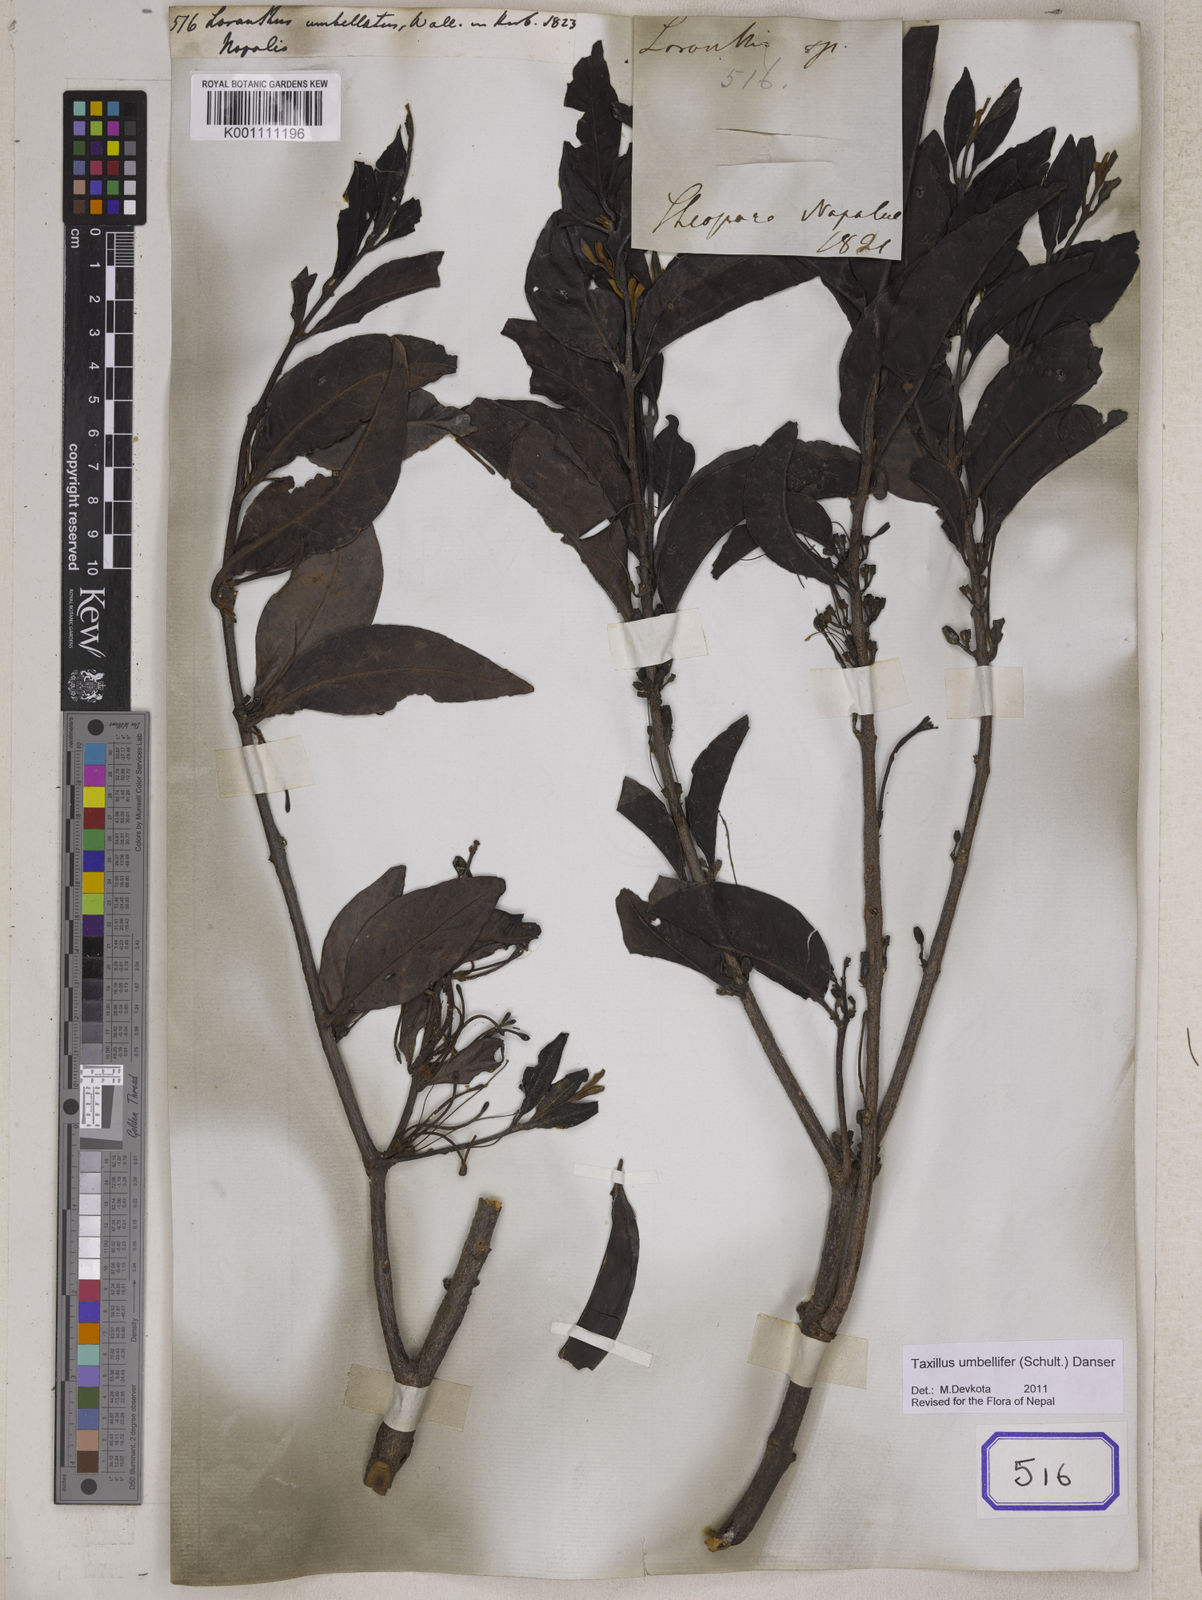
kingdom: Plantae
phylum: Tracheophyta
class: Magnoliopsida
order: Santalales
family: Loranthaceae
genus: Taxillus
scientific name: Taxillus umbellifer
